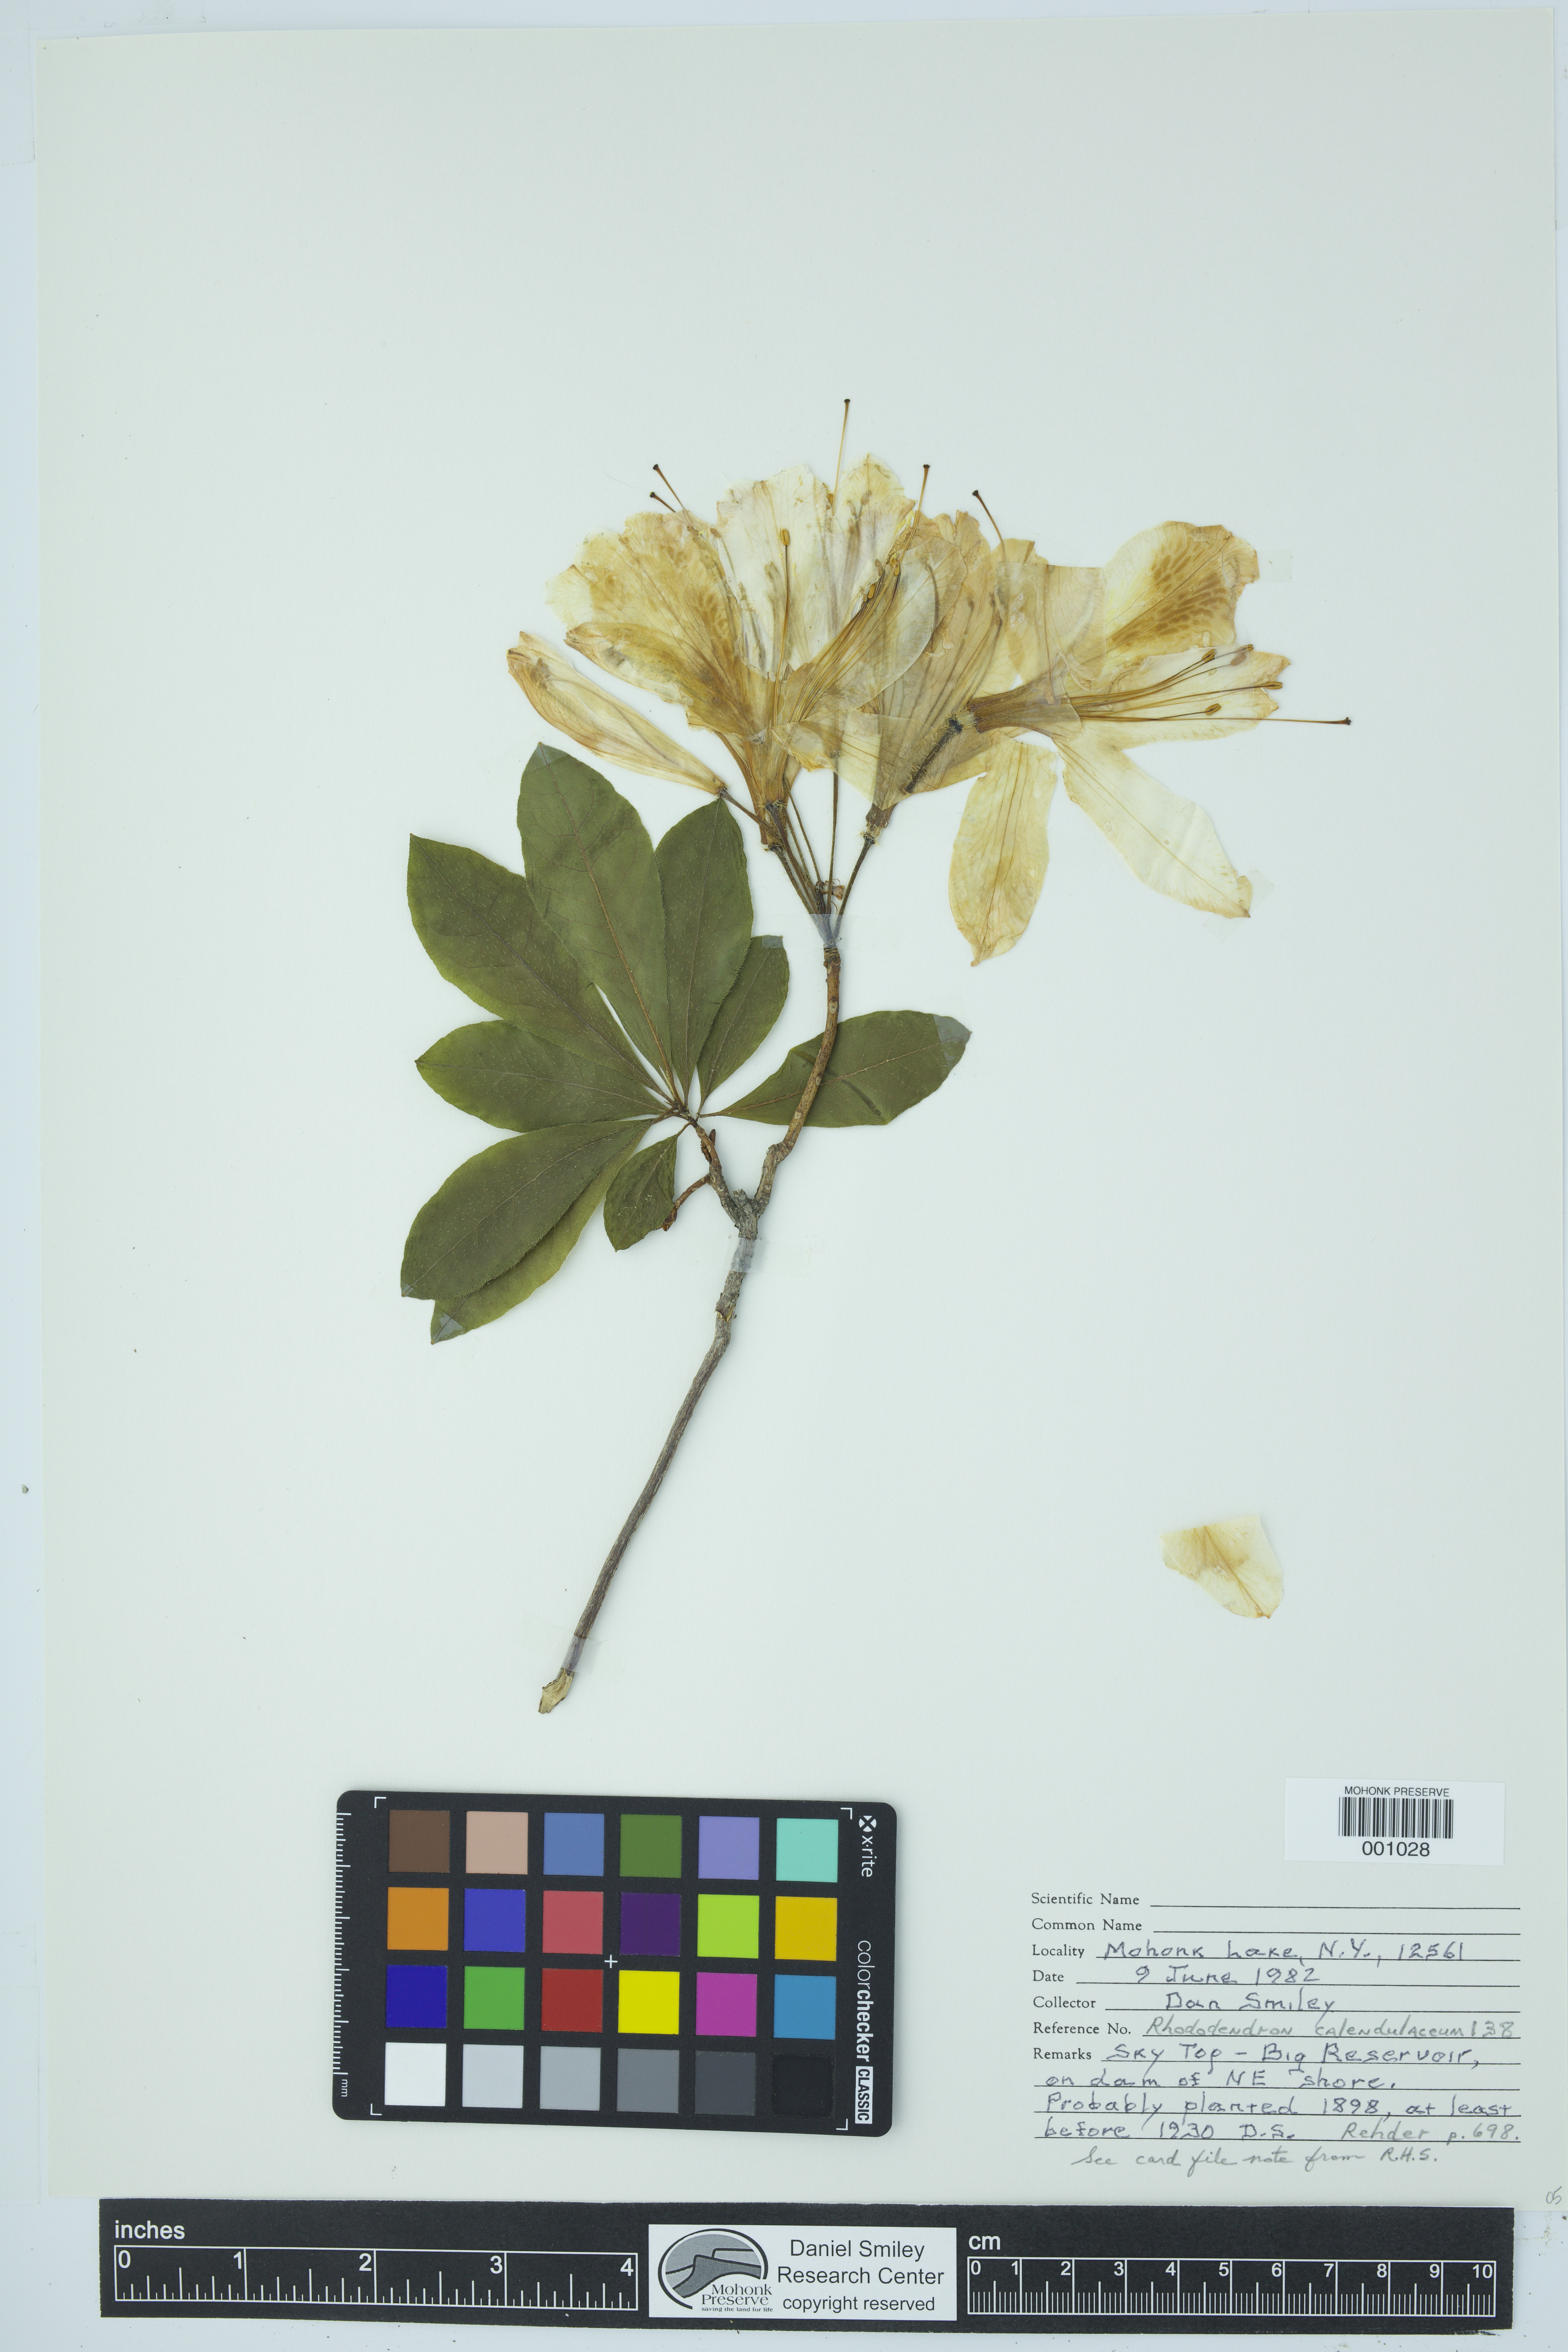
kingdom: Plantae
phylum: Tracheophyta
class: Magnoliopsida
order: Ericales
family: Ericaceae
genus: Rhododendron
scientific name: Rhododendron calendulaceum
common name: Flame azalea
